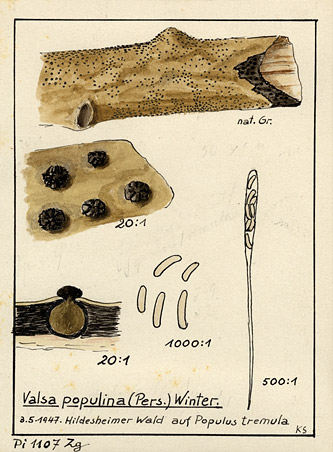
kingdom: Plantae
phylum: Tracheophyta
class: Magnoliopsida
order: Malpighiales
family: Salicaceae
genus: Populus
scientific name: Populus tremula
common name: European aspen
